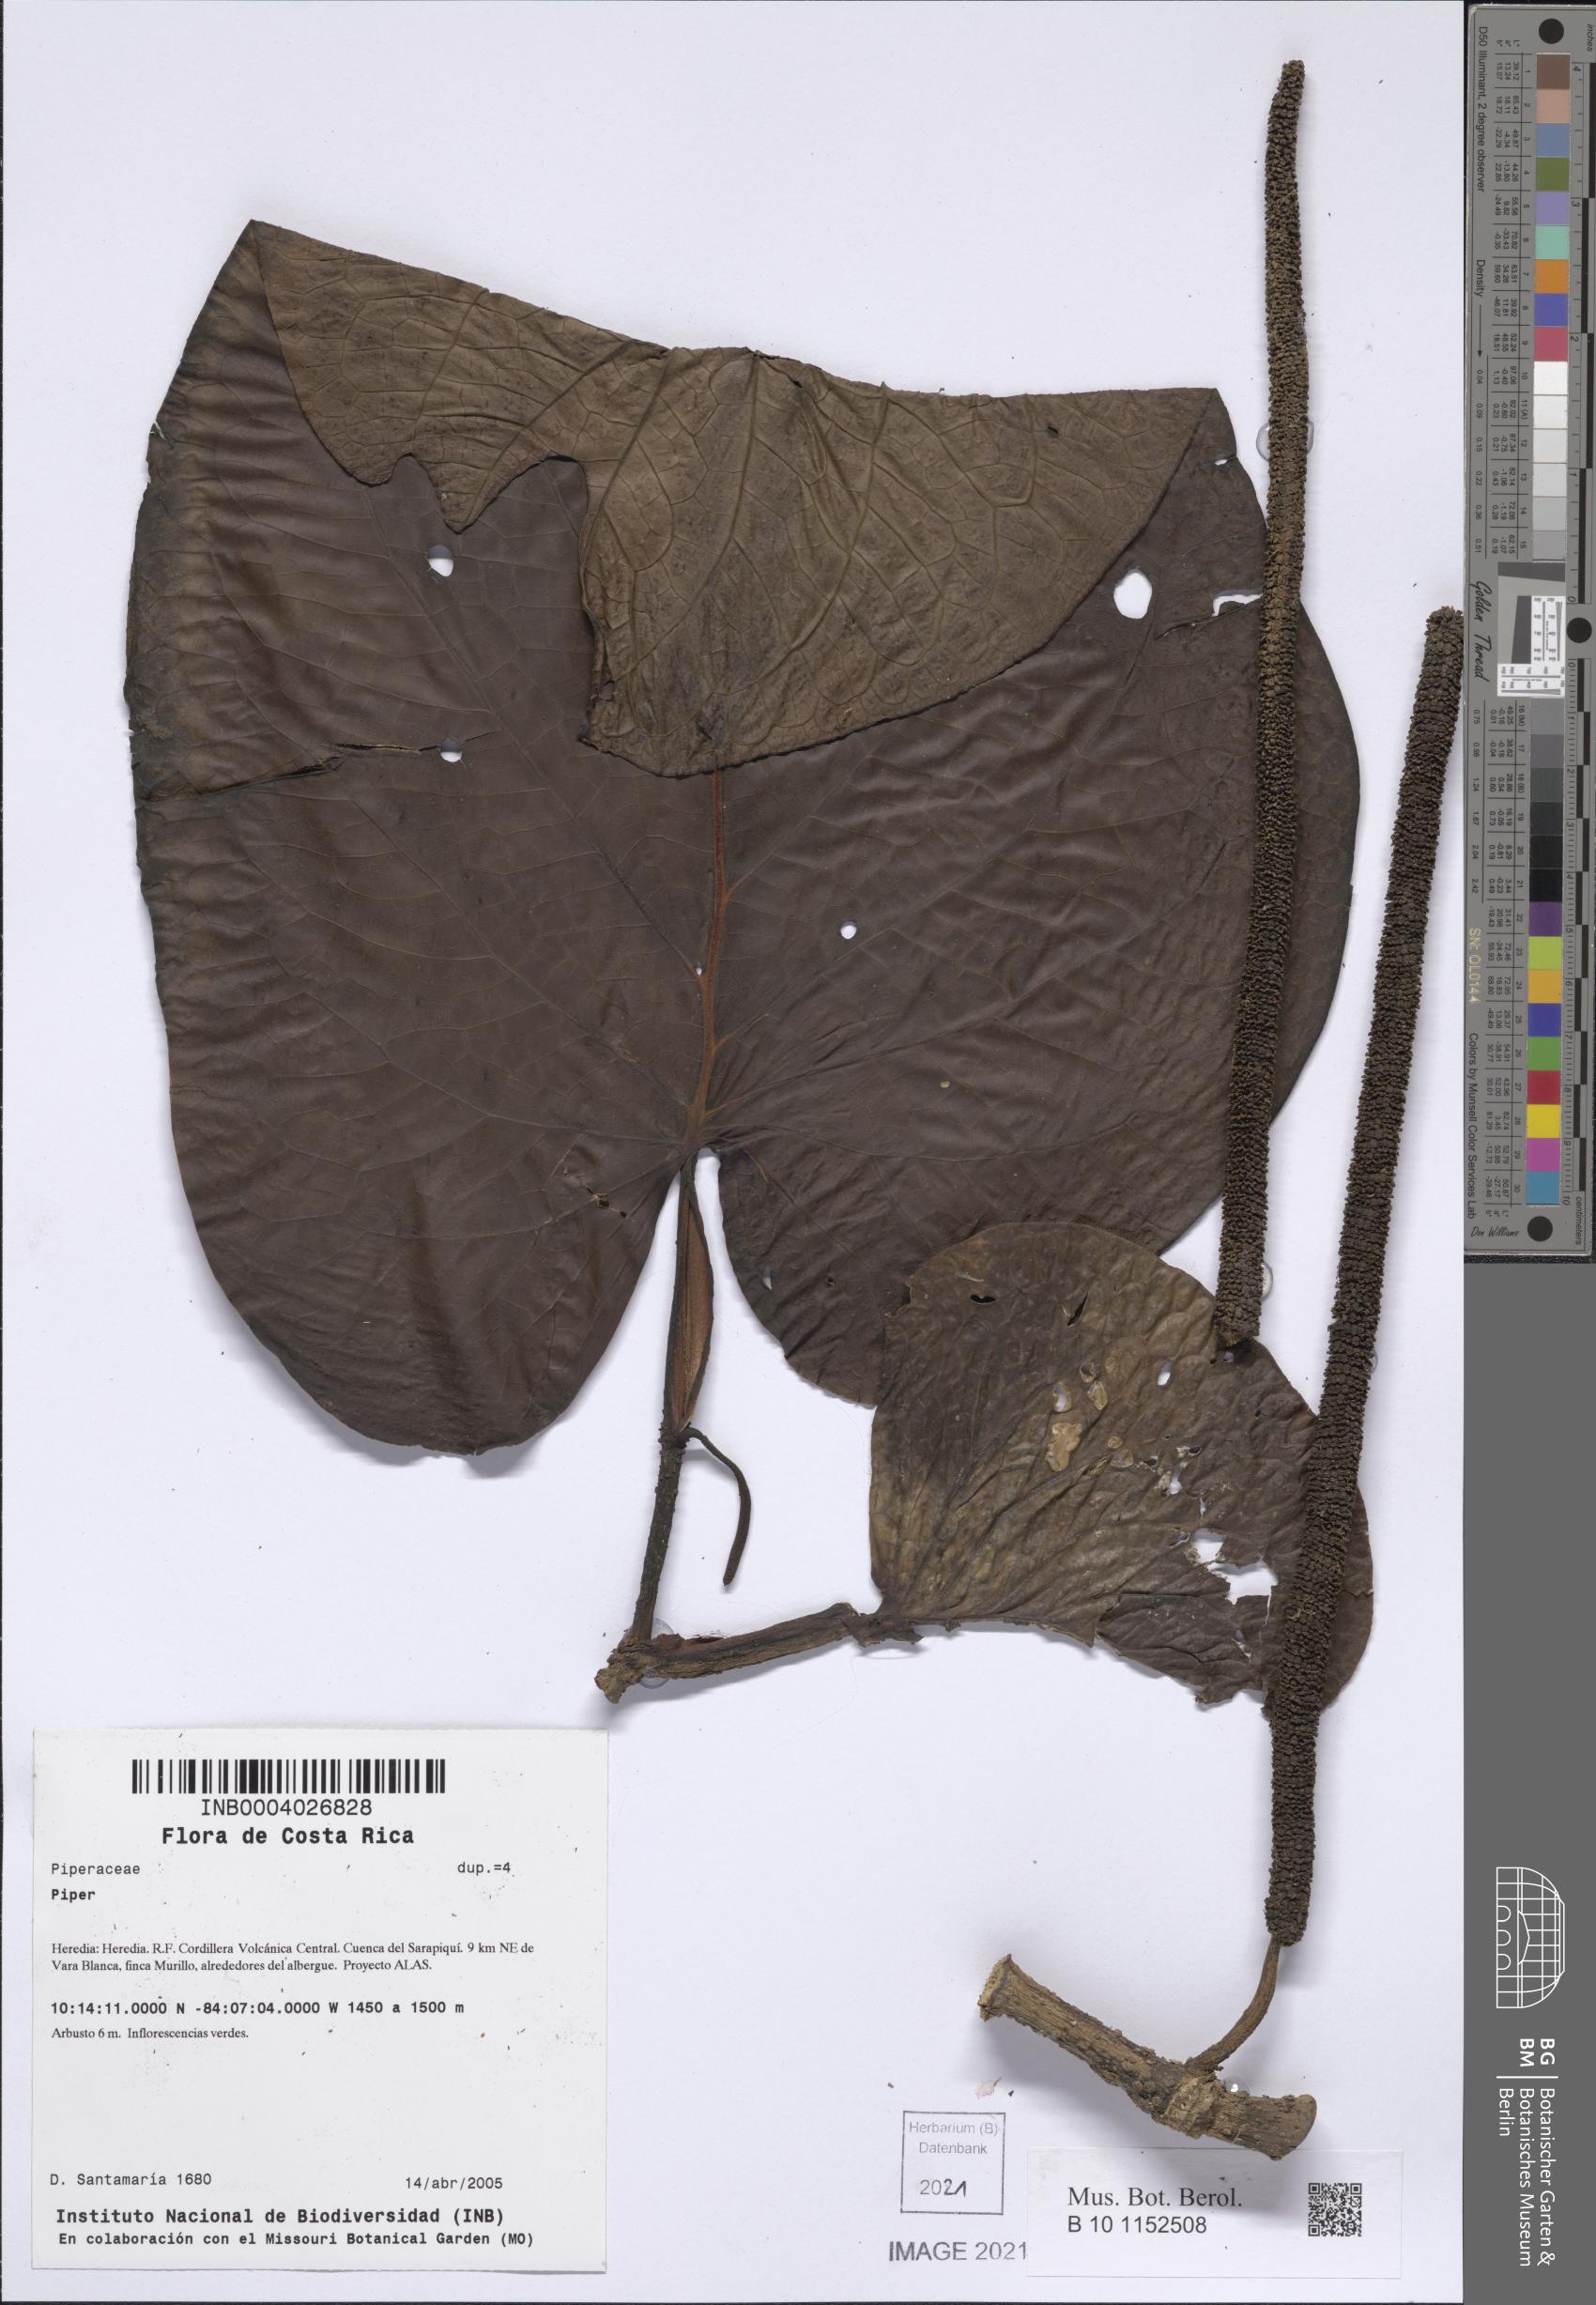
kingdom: Plantae
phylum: Tracheophyta
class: Magnoliopsida
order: Piperales
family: Piperaceae
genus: Piper
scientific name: Piper
